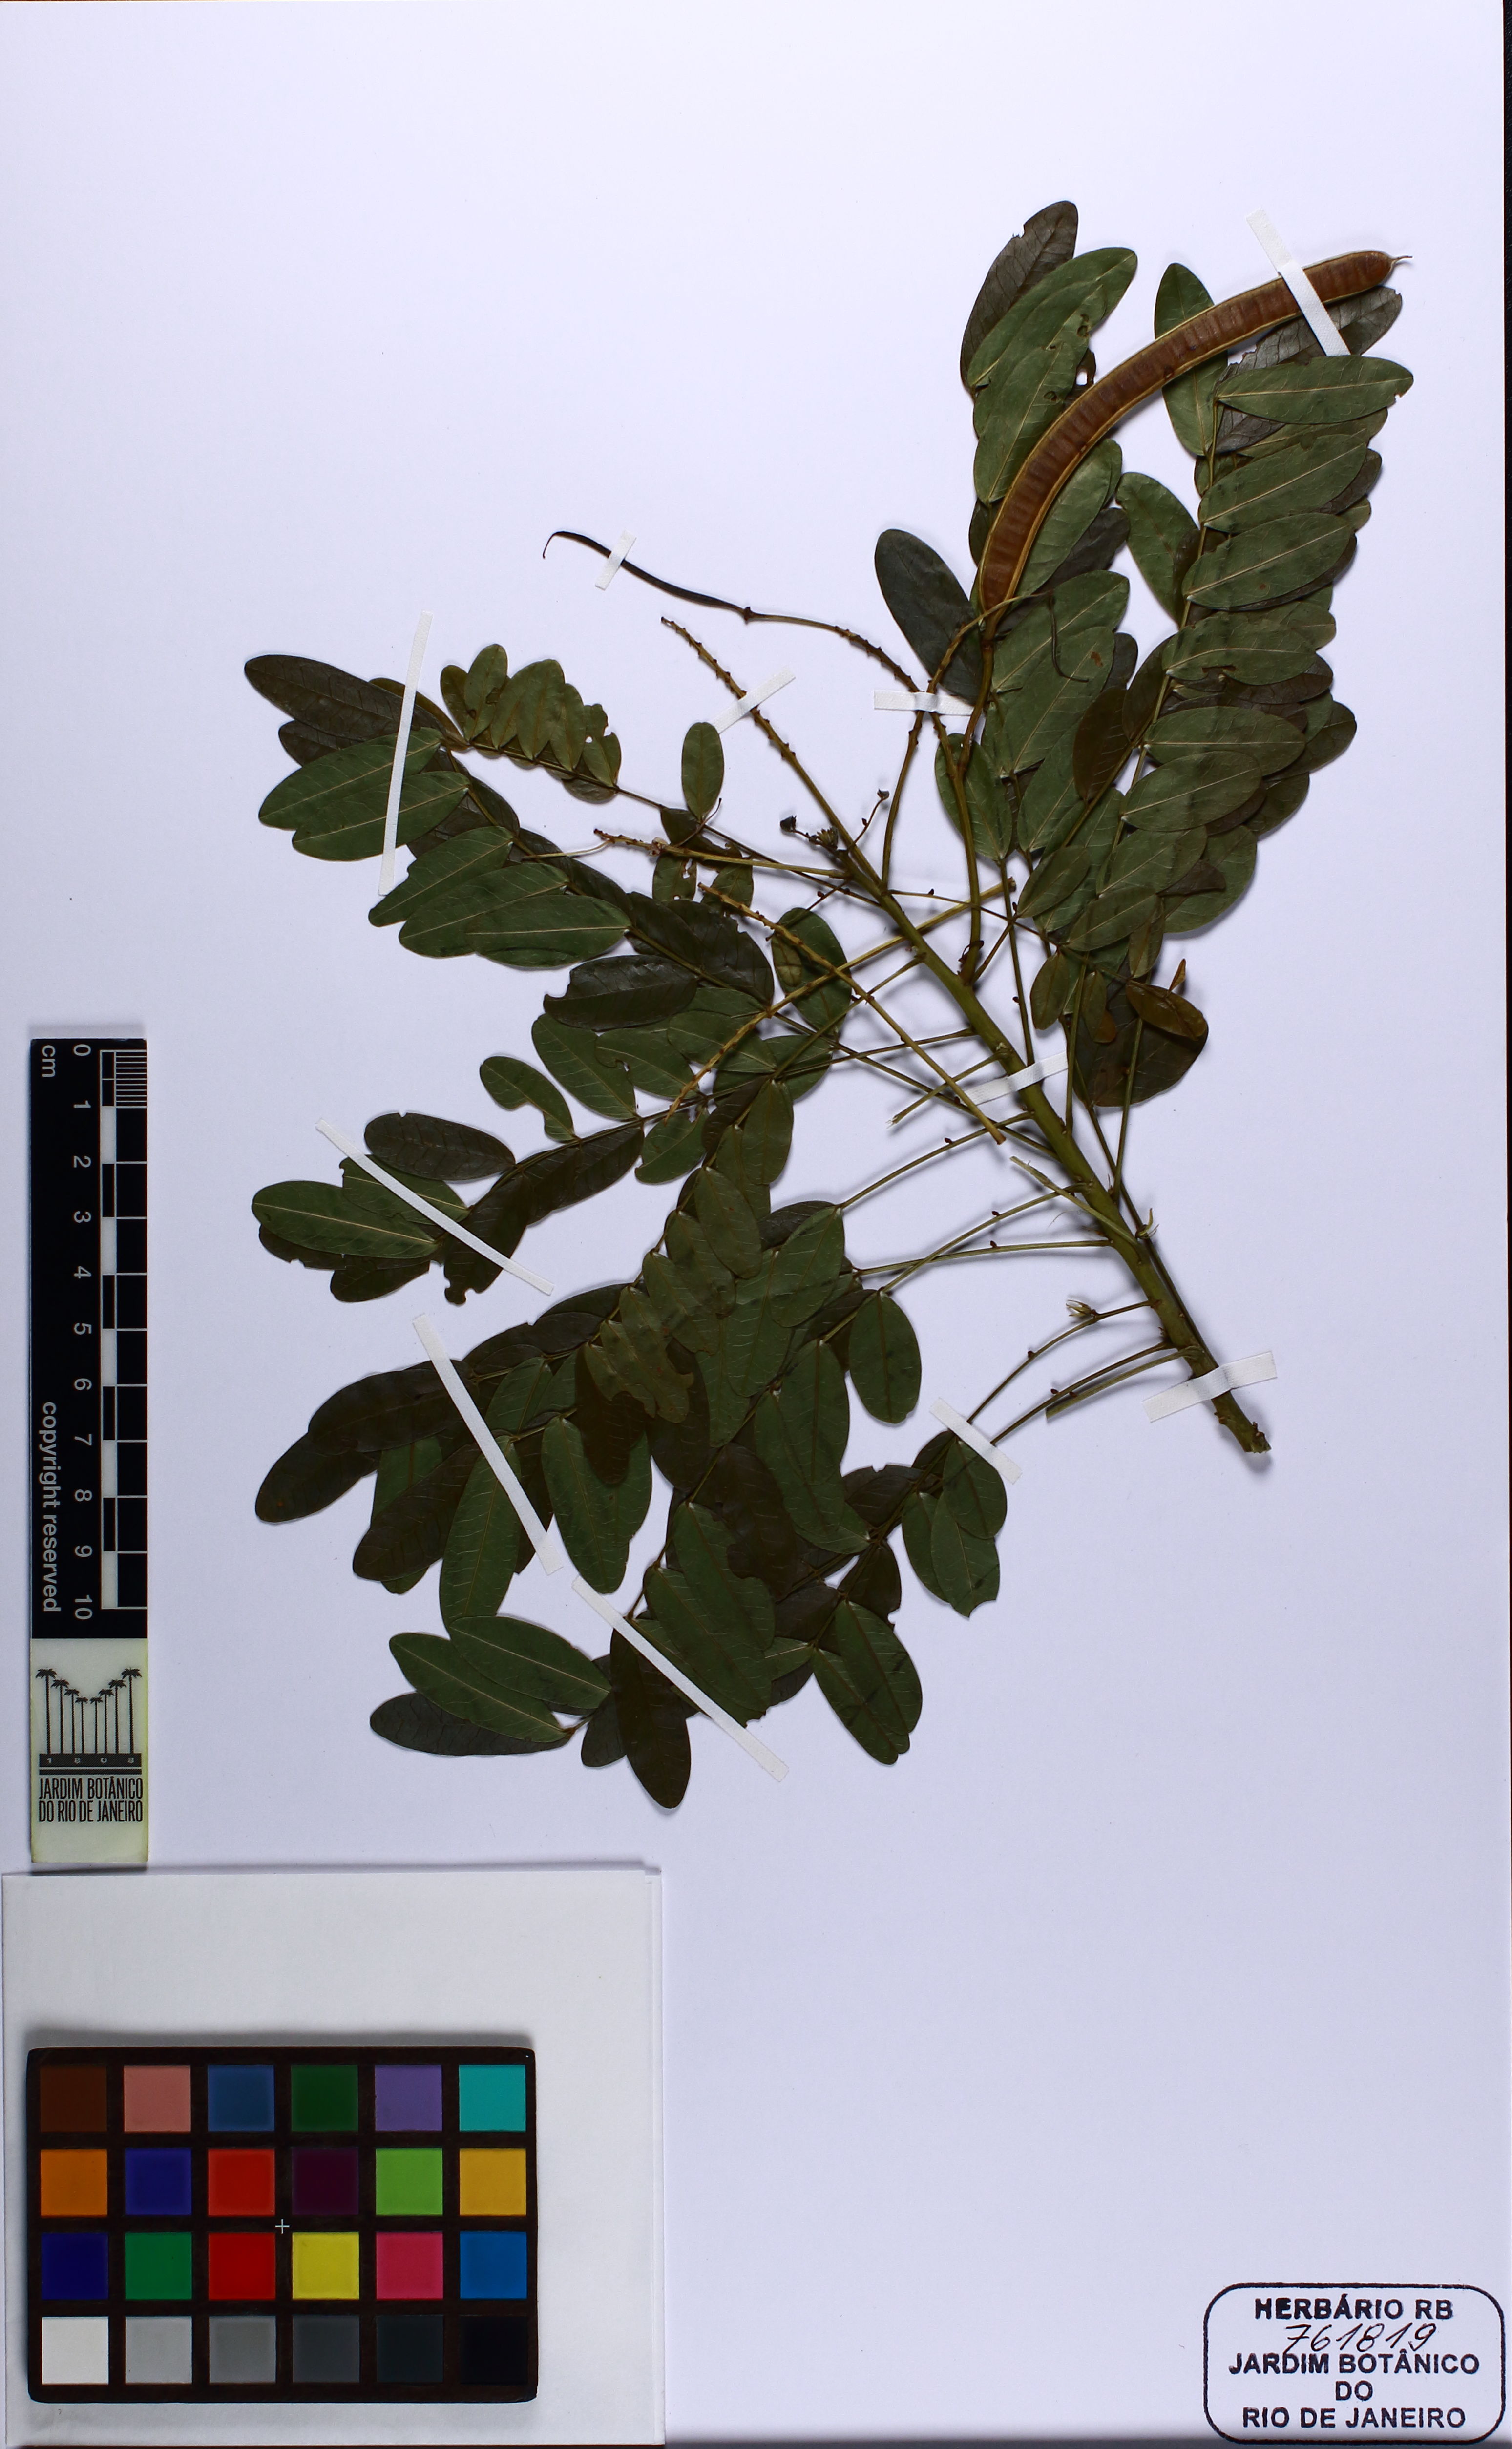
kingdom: Plantae
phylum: Tracheophyta
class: Magnoliopsida
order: Fabales
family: Fabaceae
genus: Senna
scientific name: Senna organensis
